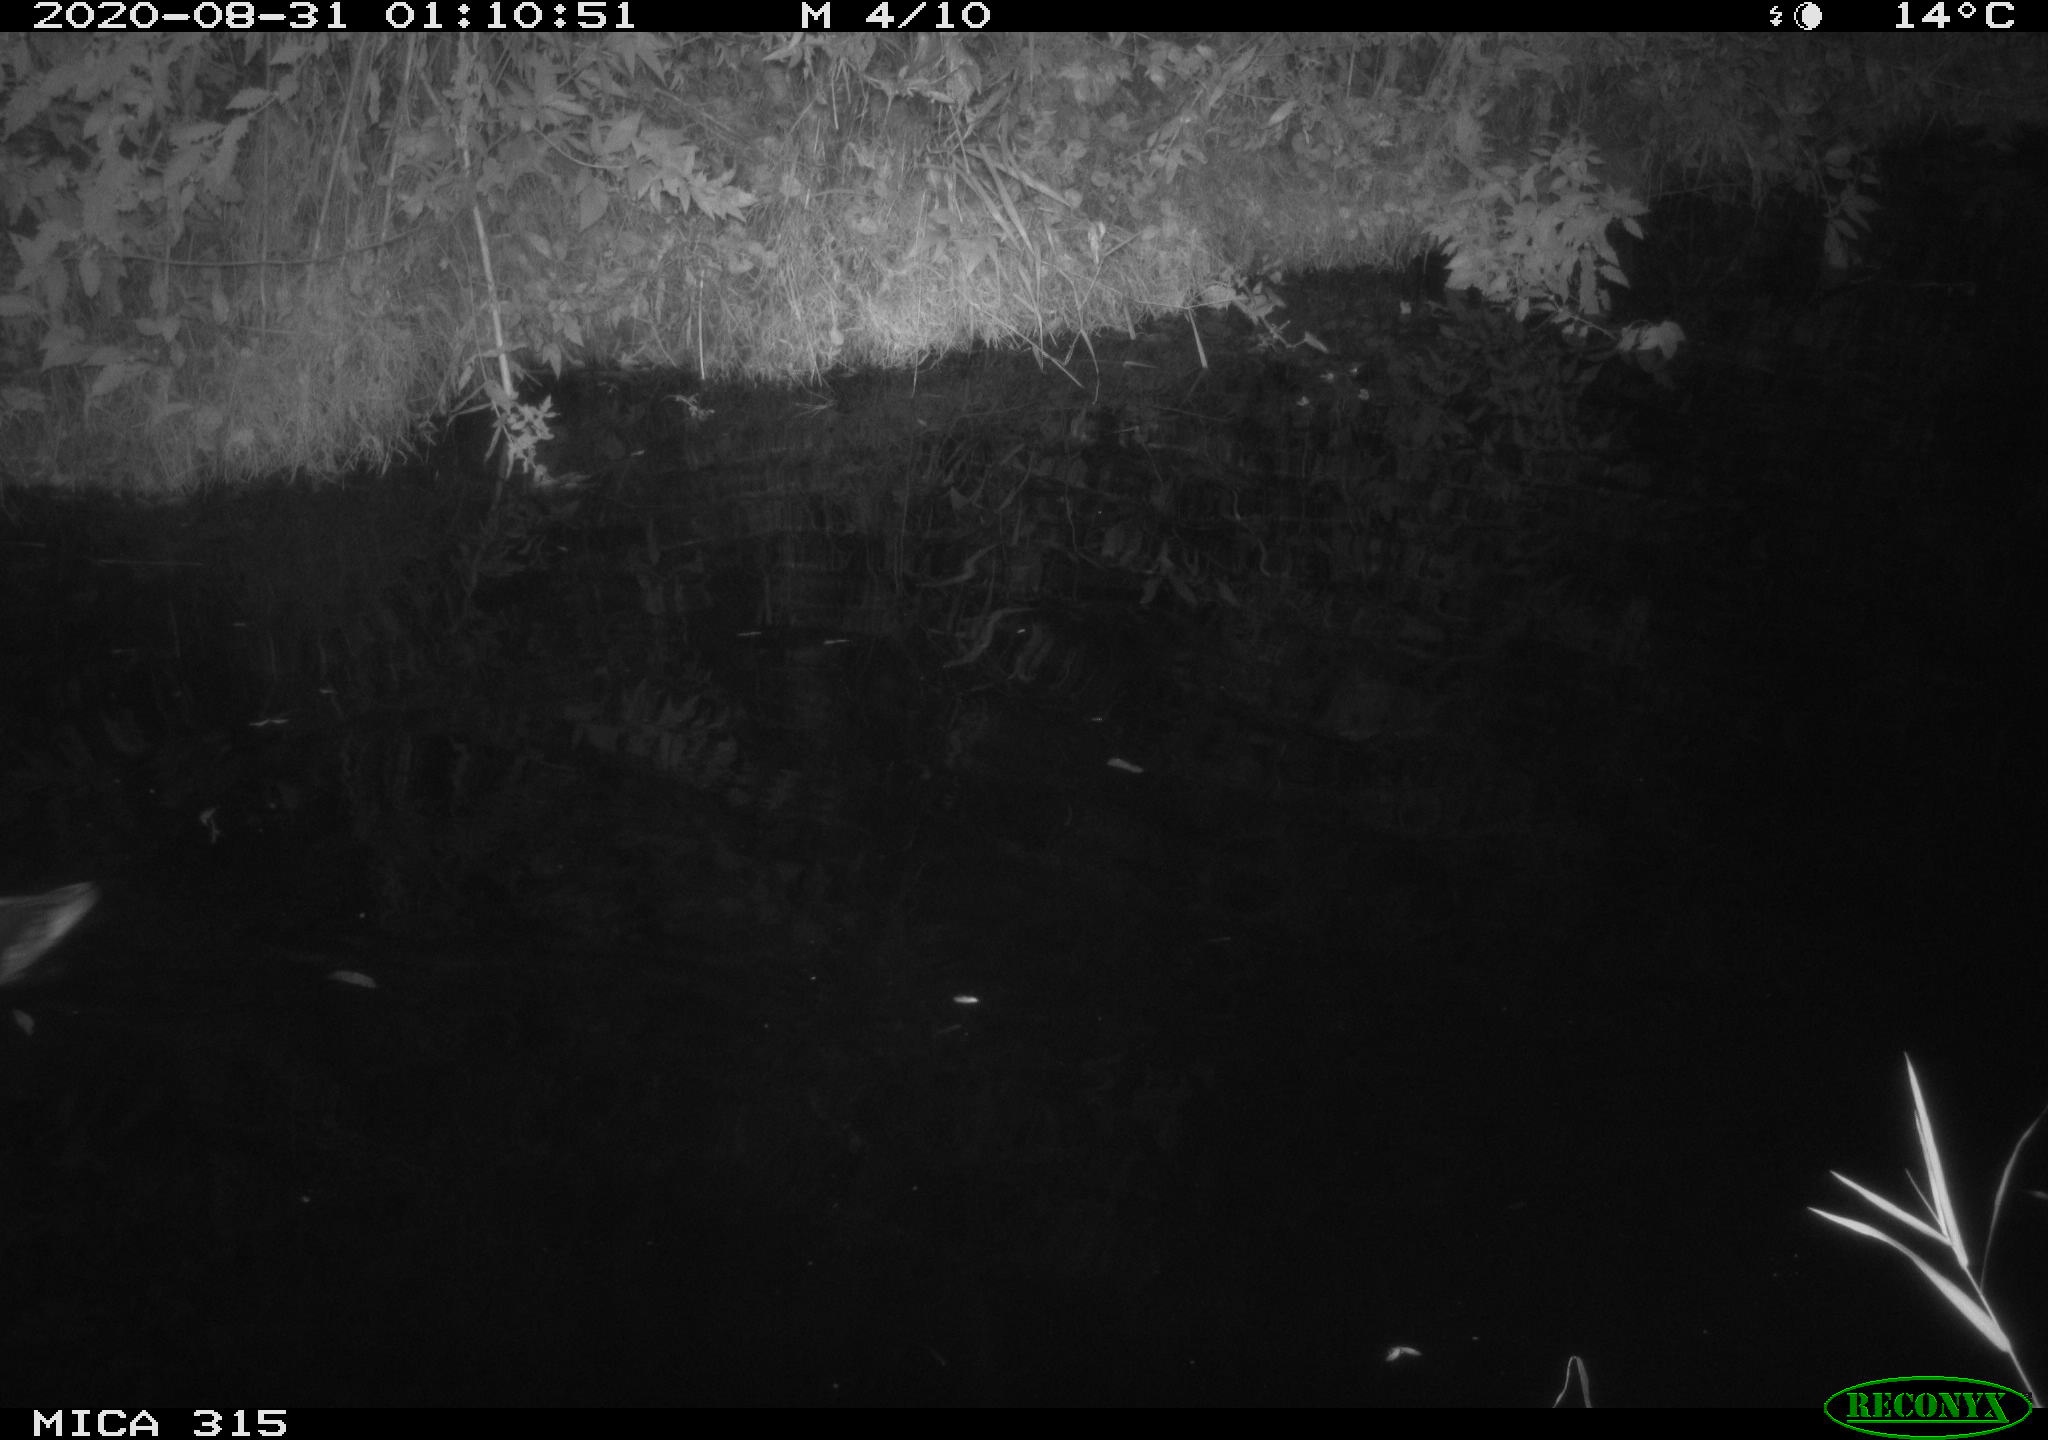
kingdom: Animalia
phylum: Chordata
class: Aves
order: Anseriformes
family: Anatidae
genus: Anas
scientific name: Anas platyrhynchos
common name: Mallard
